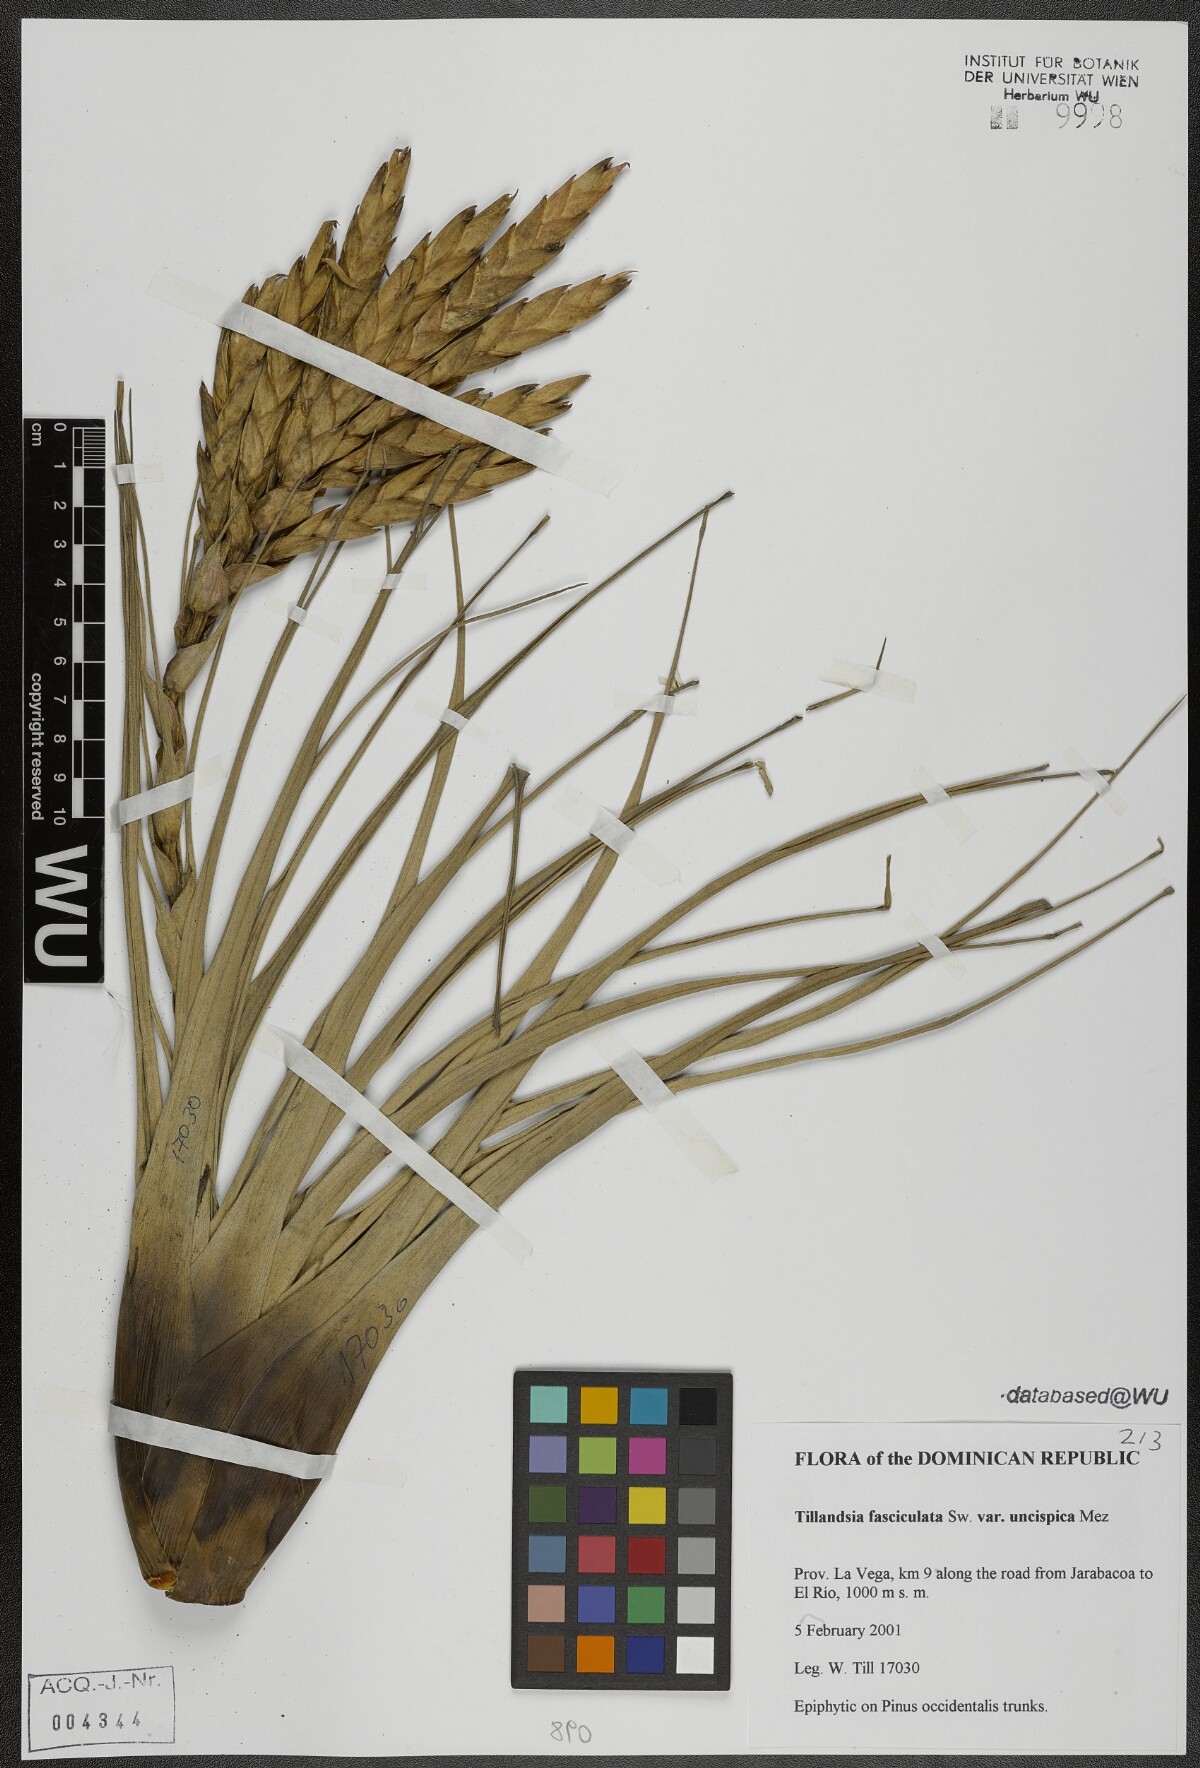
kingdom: Plantae
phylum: Tracheophyta
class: Liliopsida
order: Poales
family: Bromeliaceae
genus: Tillandsia
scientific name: Tillandsia fasciculata
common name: Giant airplant
